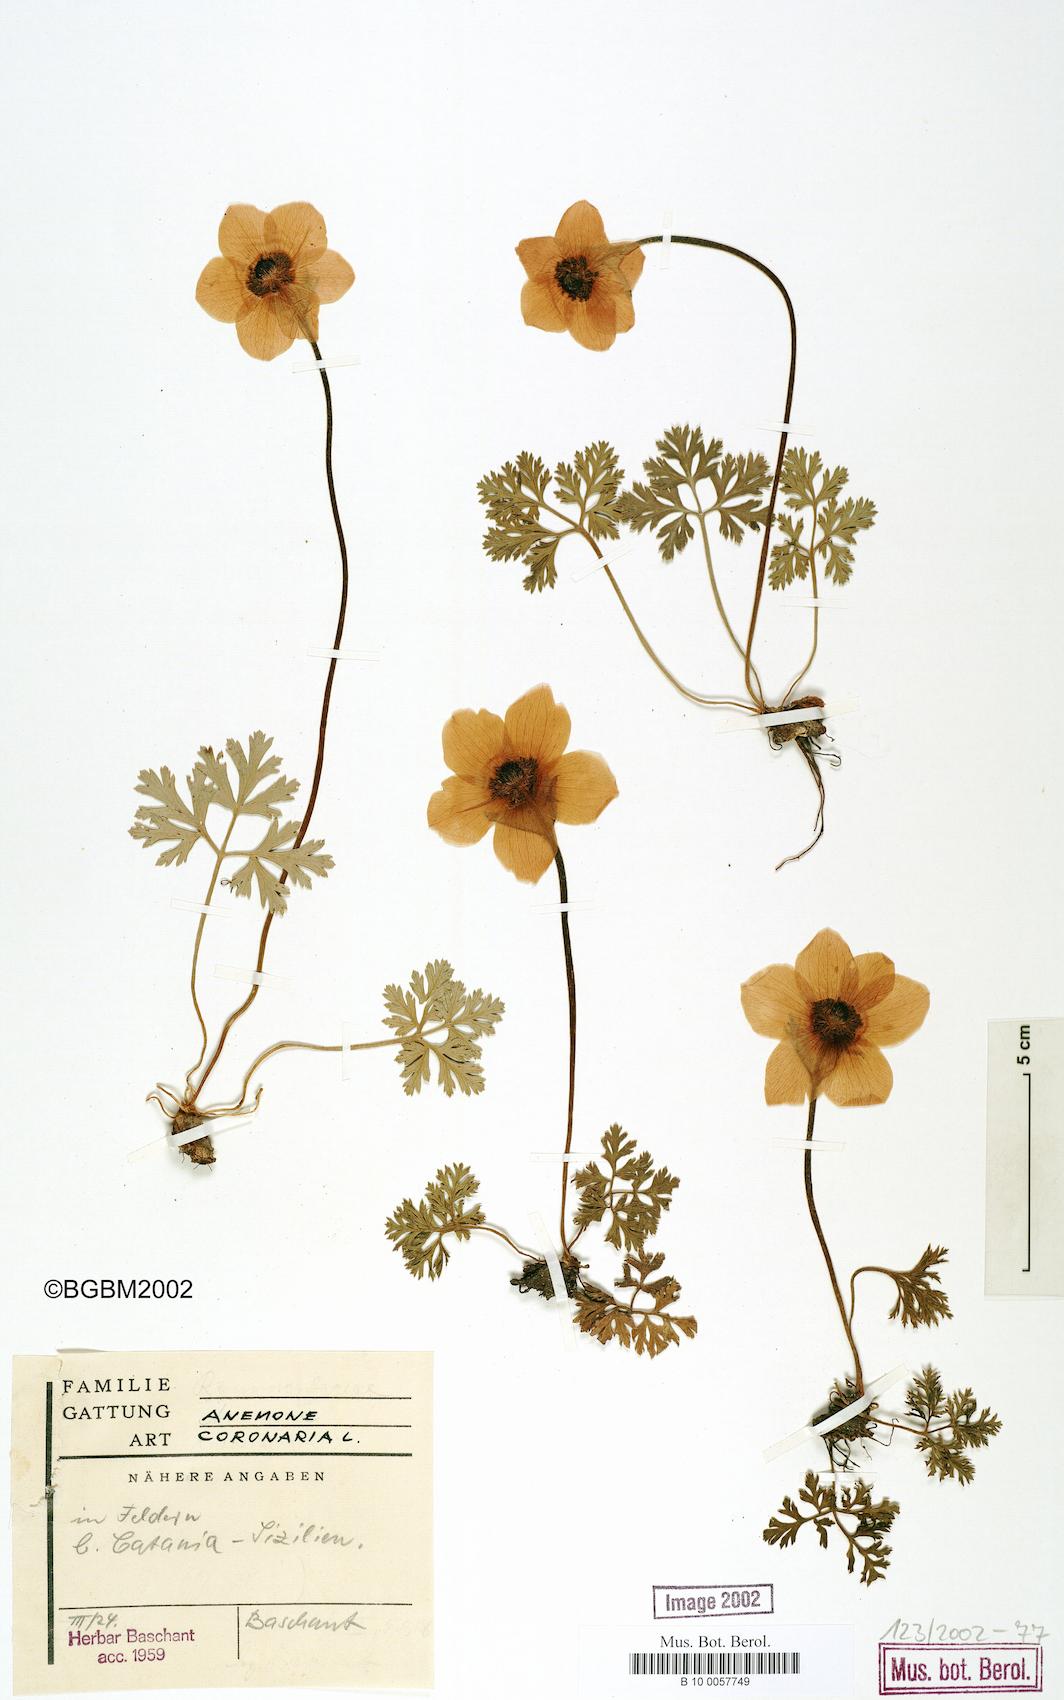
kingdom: Plantae
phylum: Tracheophyta
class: Magnoliopsida
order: Ranunculales
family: Ranunculaceae
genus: Anemone
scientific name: Anemone coronaria
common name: Poppy anemone
